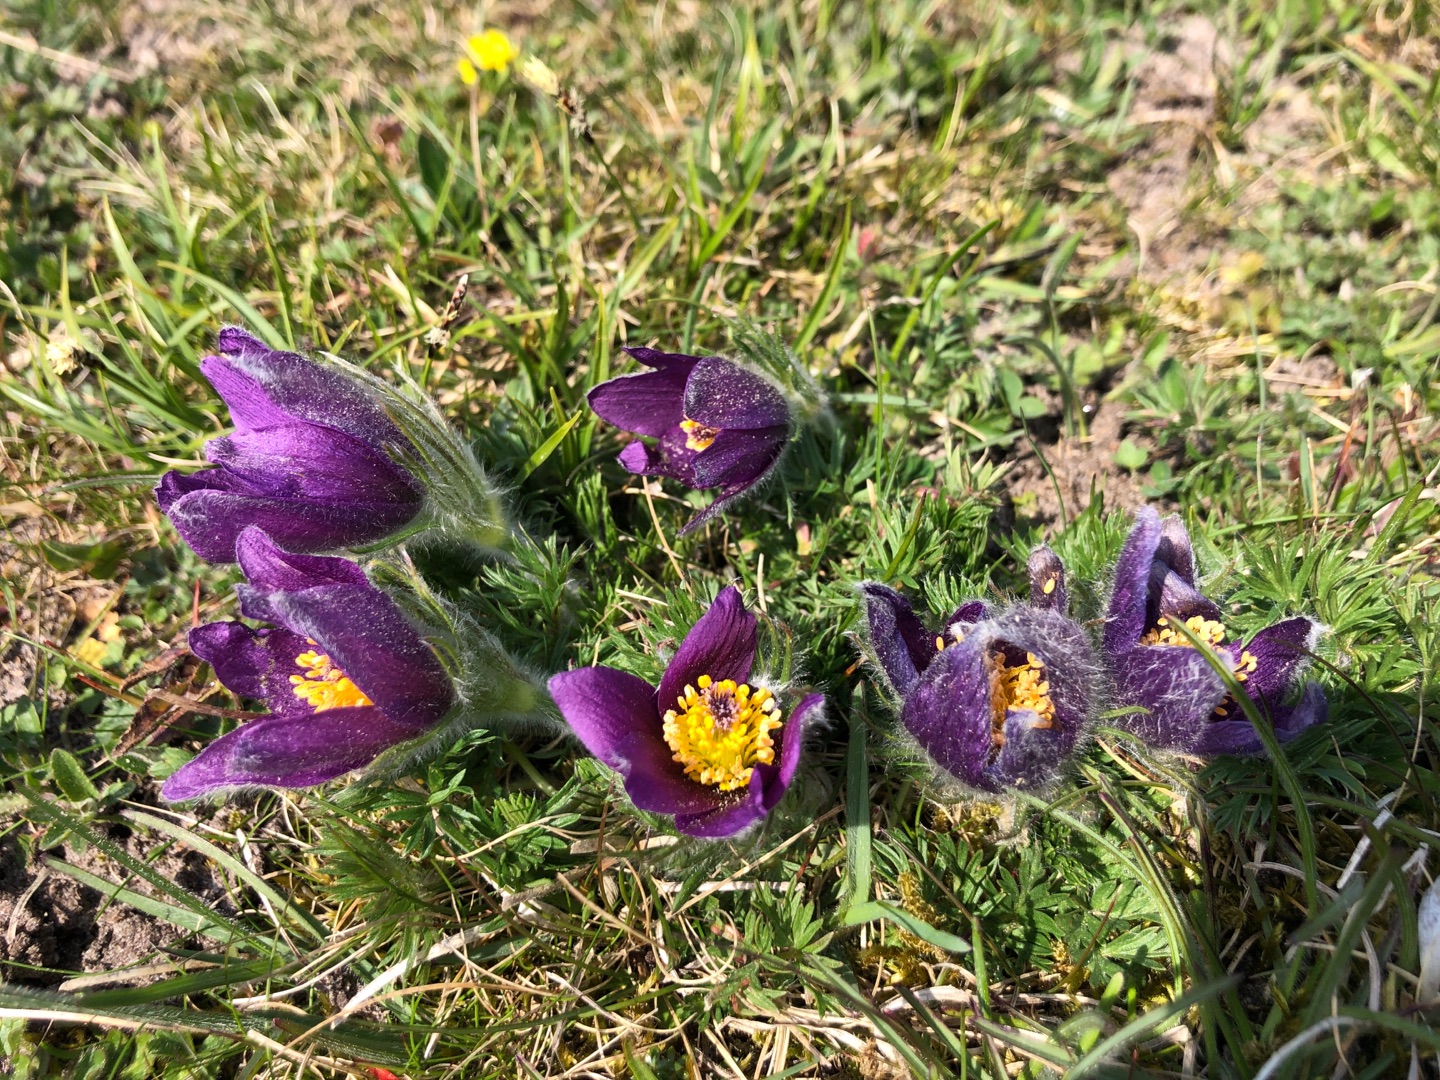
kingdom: Plantae
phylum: Tracheophyta
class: Magnoliopsida
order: Ranunculales
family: Ranunculaceae
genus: Pulsatilla
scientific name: Pulsatilla vulgaris
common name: Opret kobjælde
